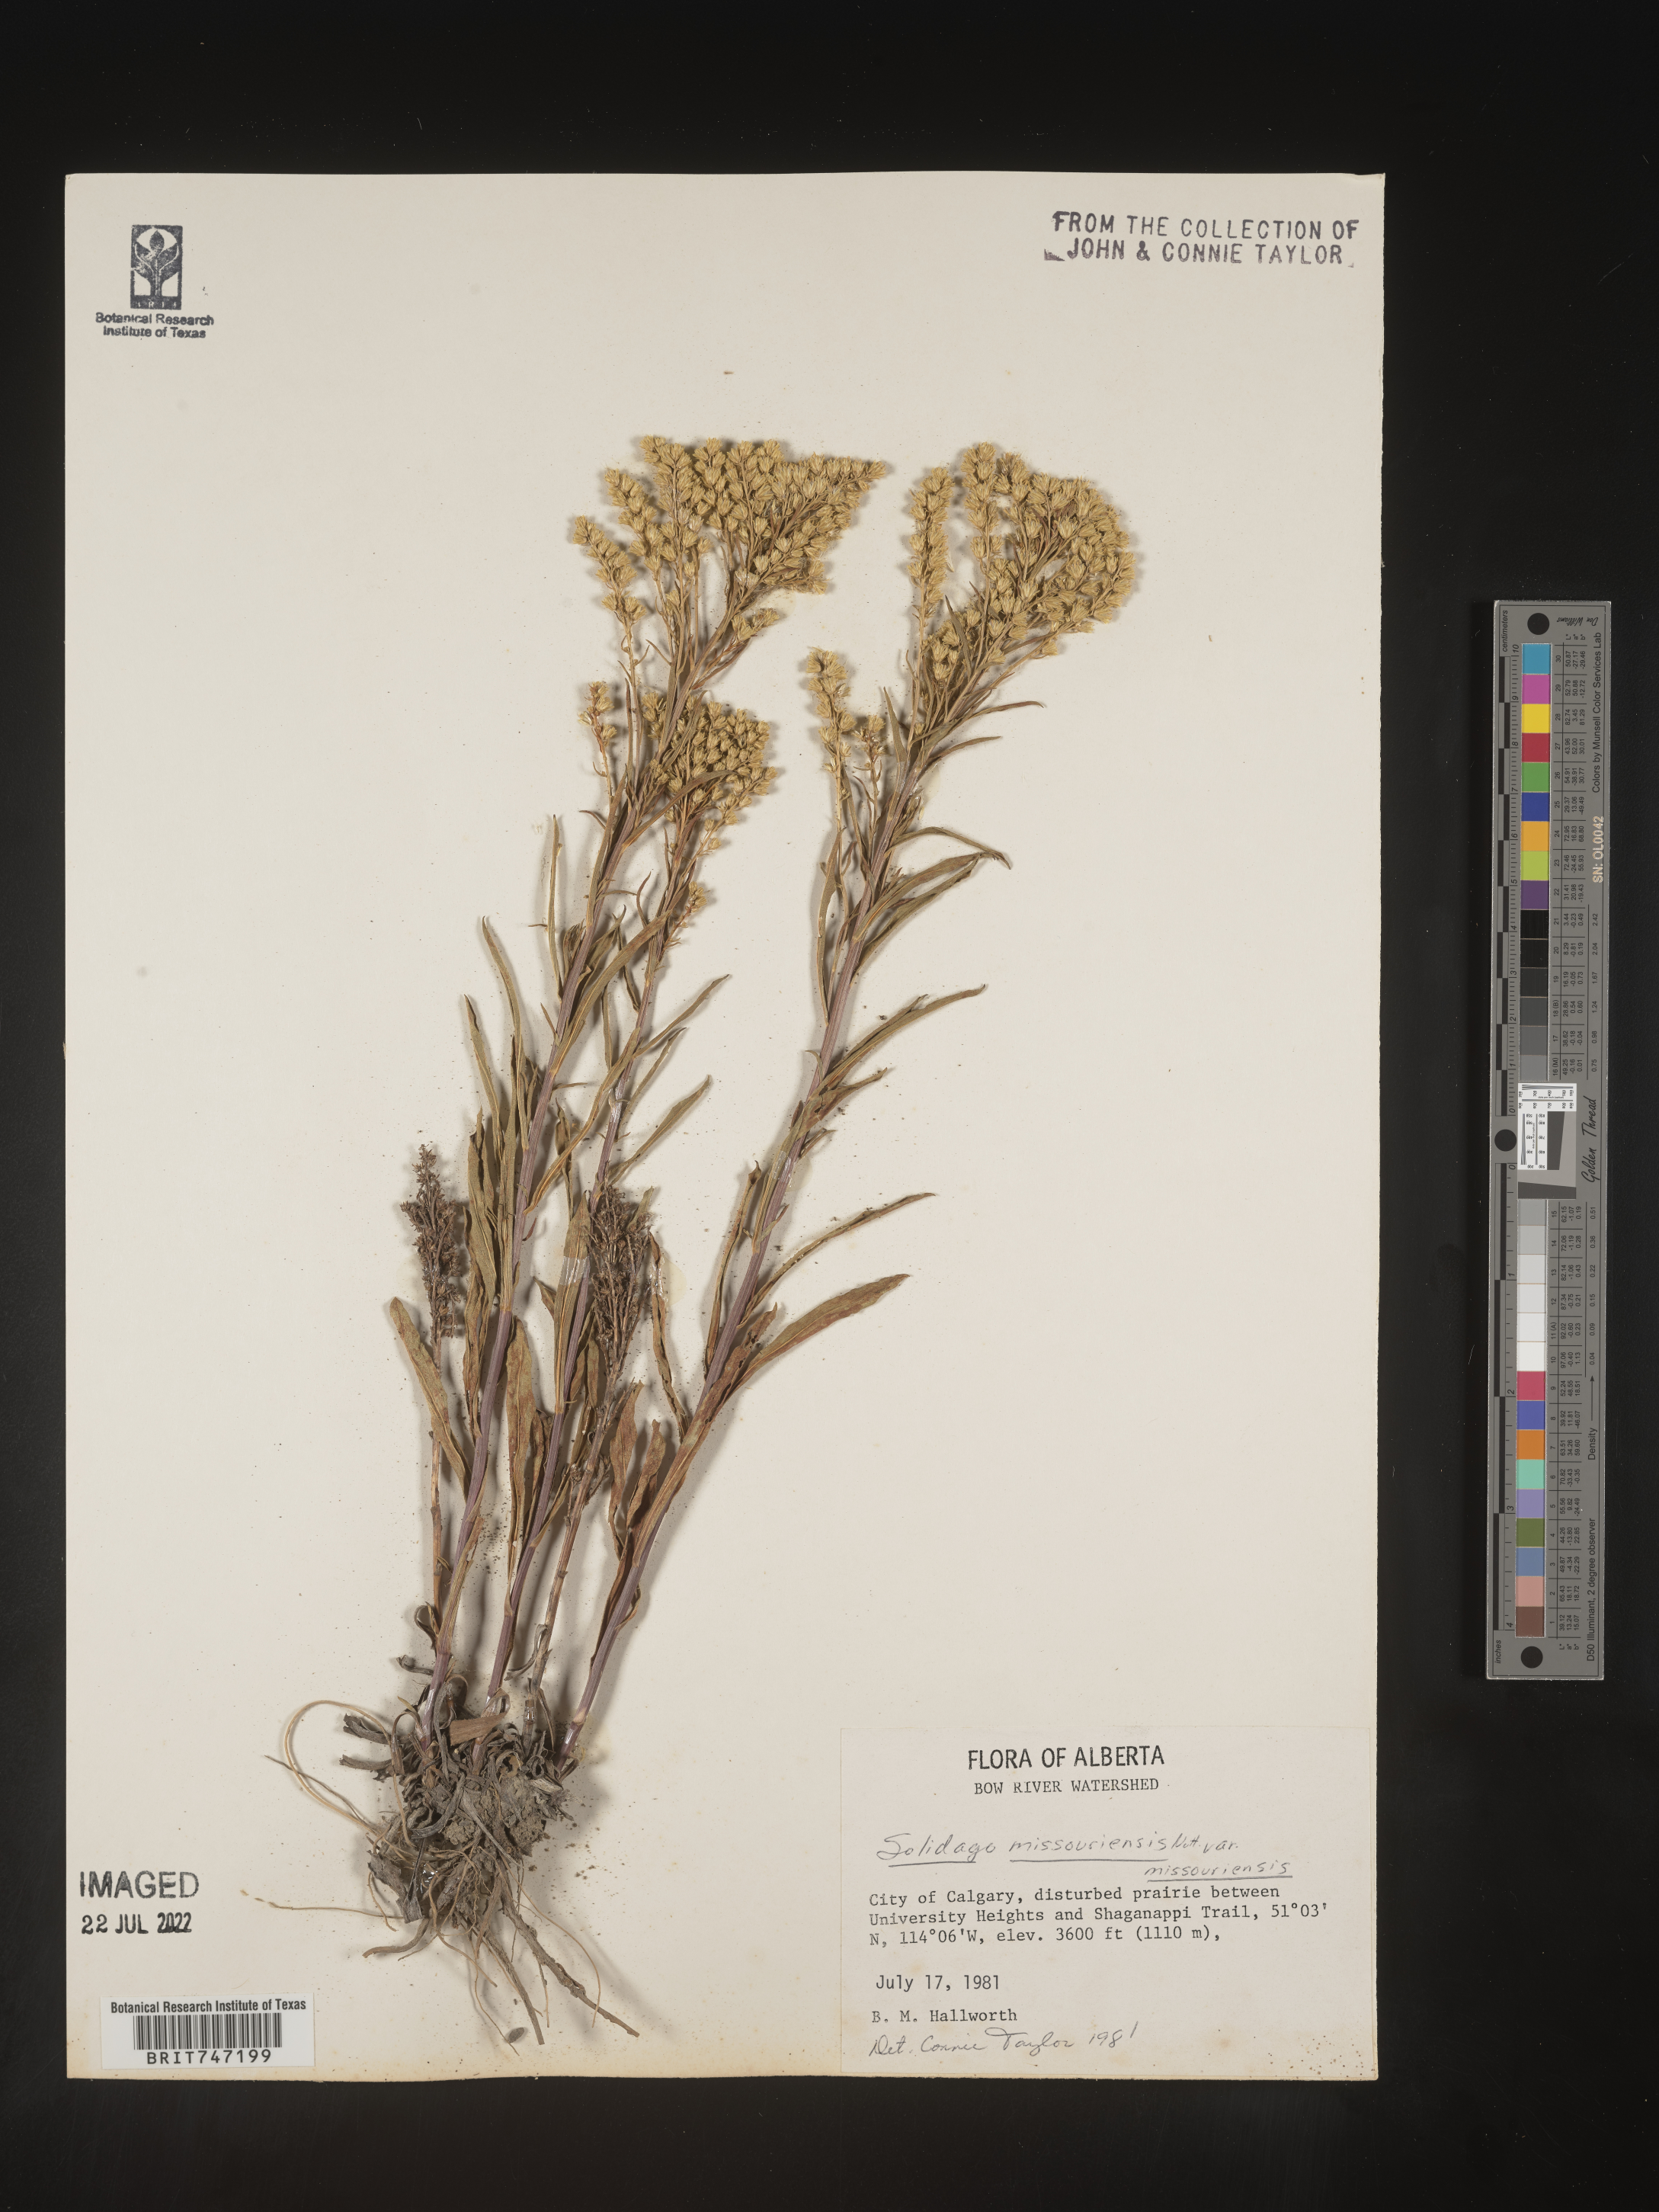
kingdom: Plantae
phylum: Tracheophyta
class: Magnoliopsida
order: Asterales
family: Asteraceae
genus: Solidago
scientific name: Solidago missouriensis
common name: Prairie goldenrod
